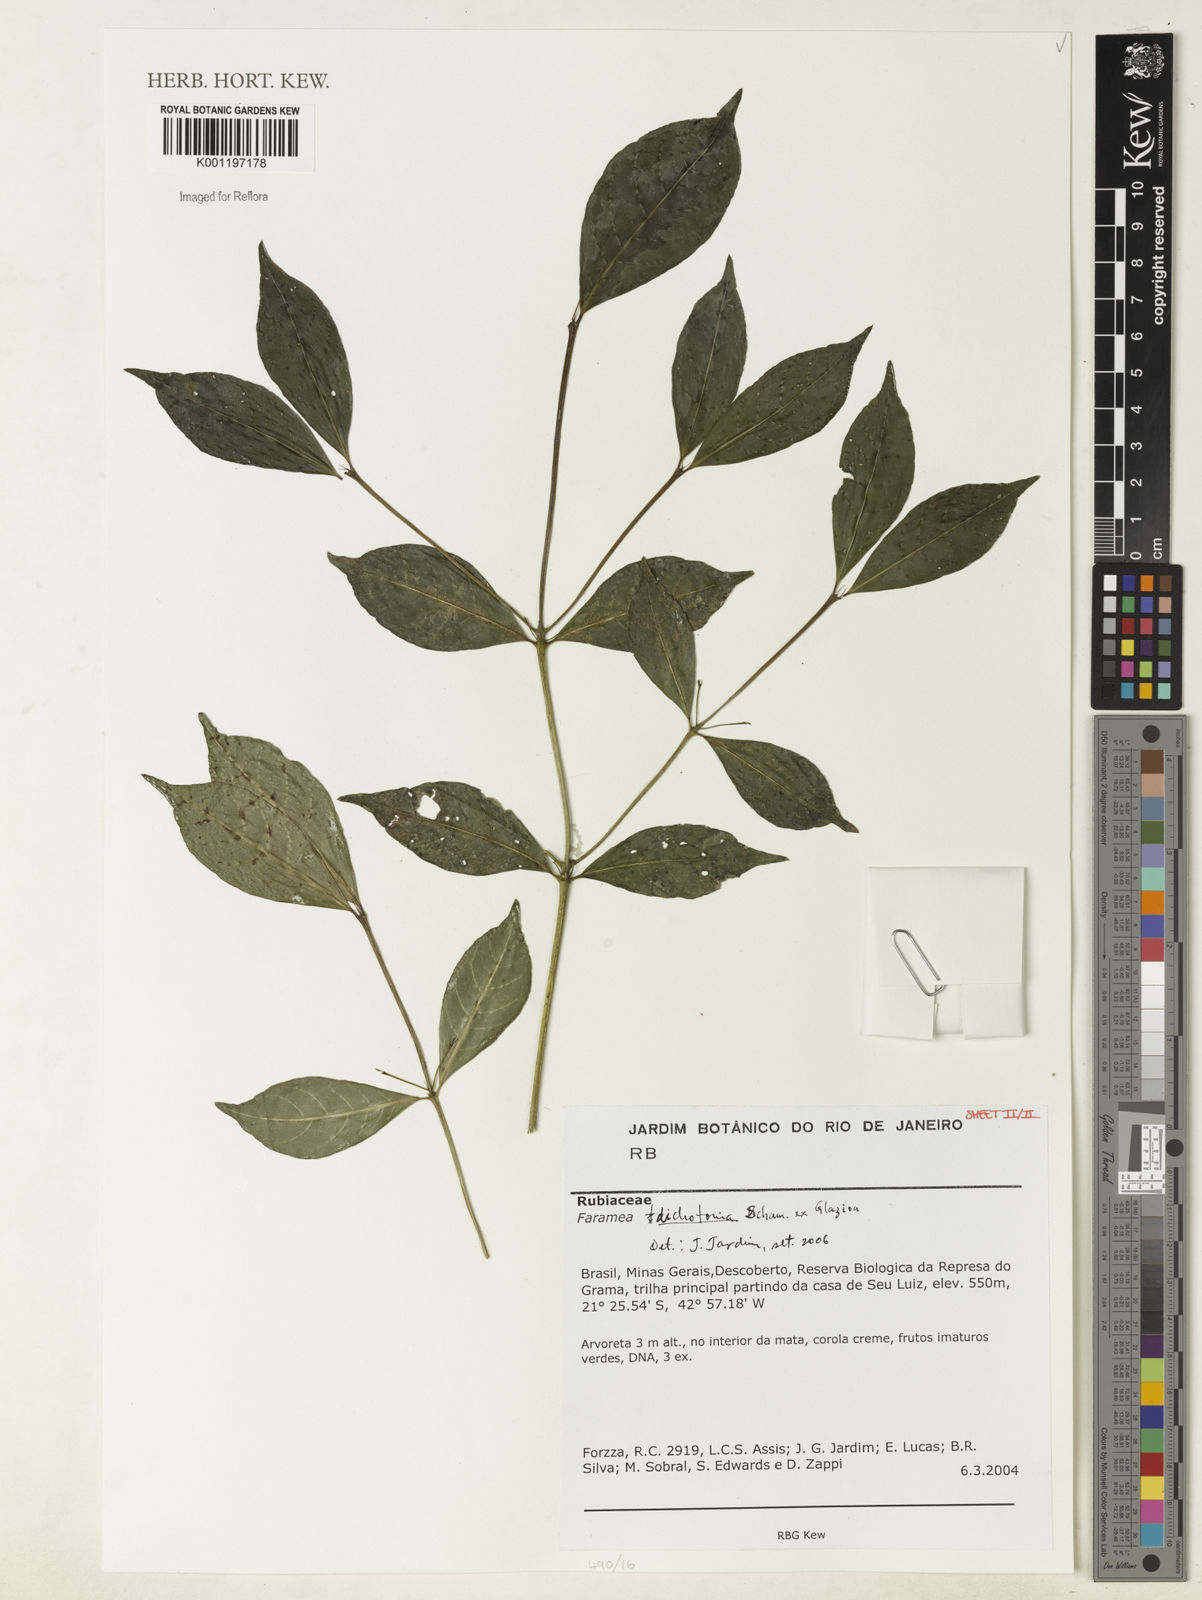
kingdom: Plantae
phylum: Tracheophyta
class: Magnoliopsida
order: Gentianales
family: Rubiaceae
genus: Faramea
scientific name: Faramea dichotoma
